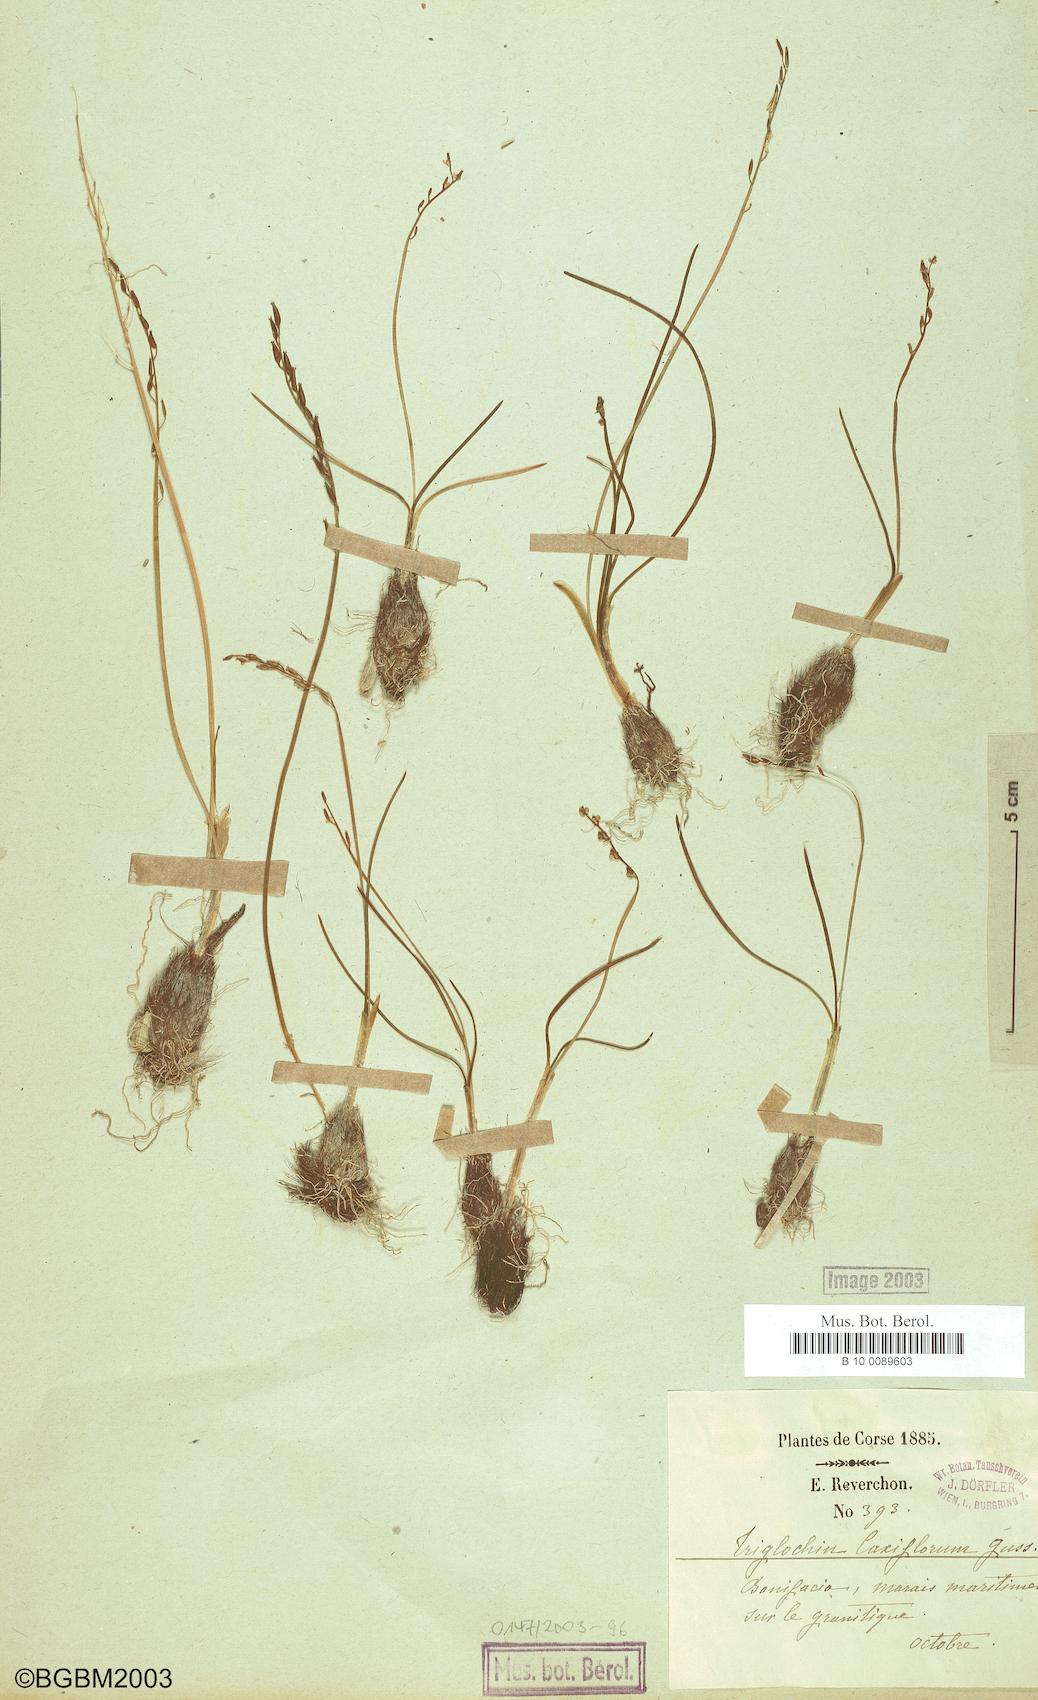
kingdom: Plantae
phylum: Tracheophyta
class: Liliopsida
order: Alismatales
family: Juncaginaceae
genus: Triglochin
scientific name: Triglochin laxiflora
